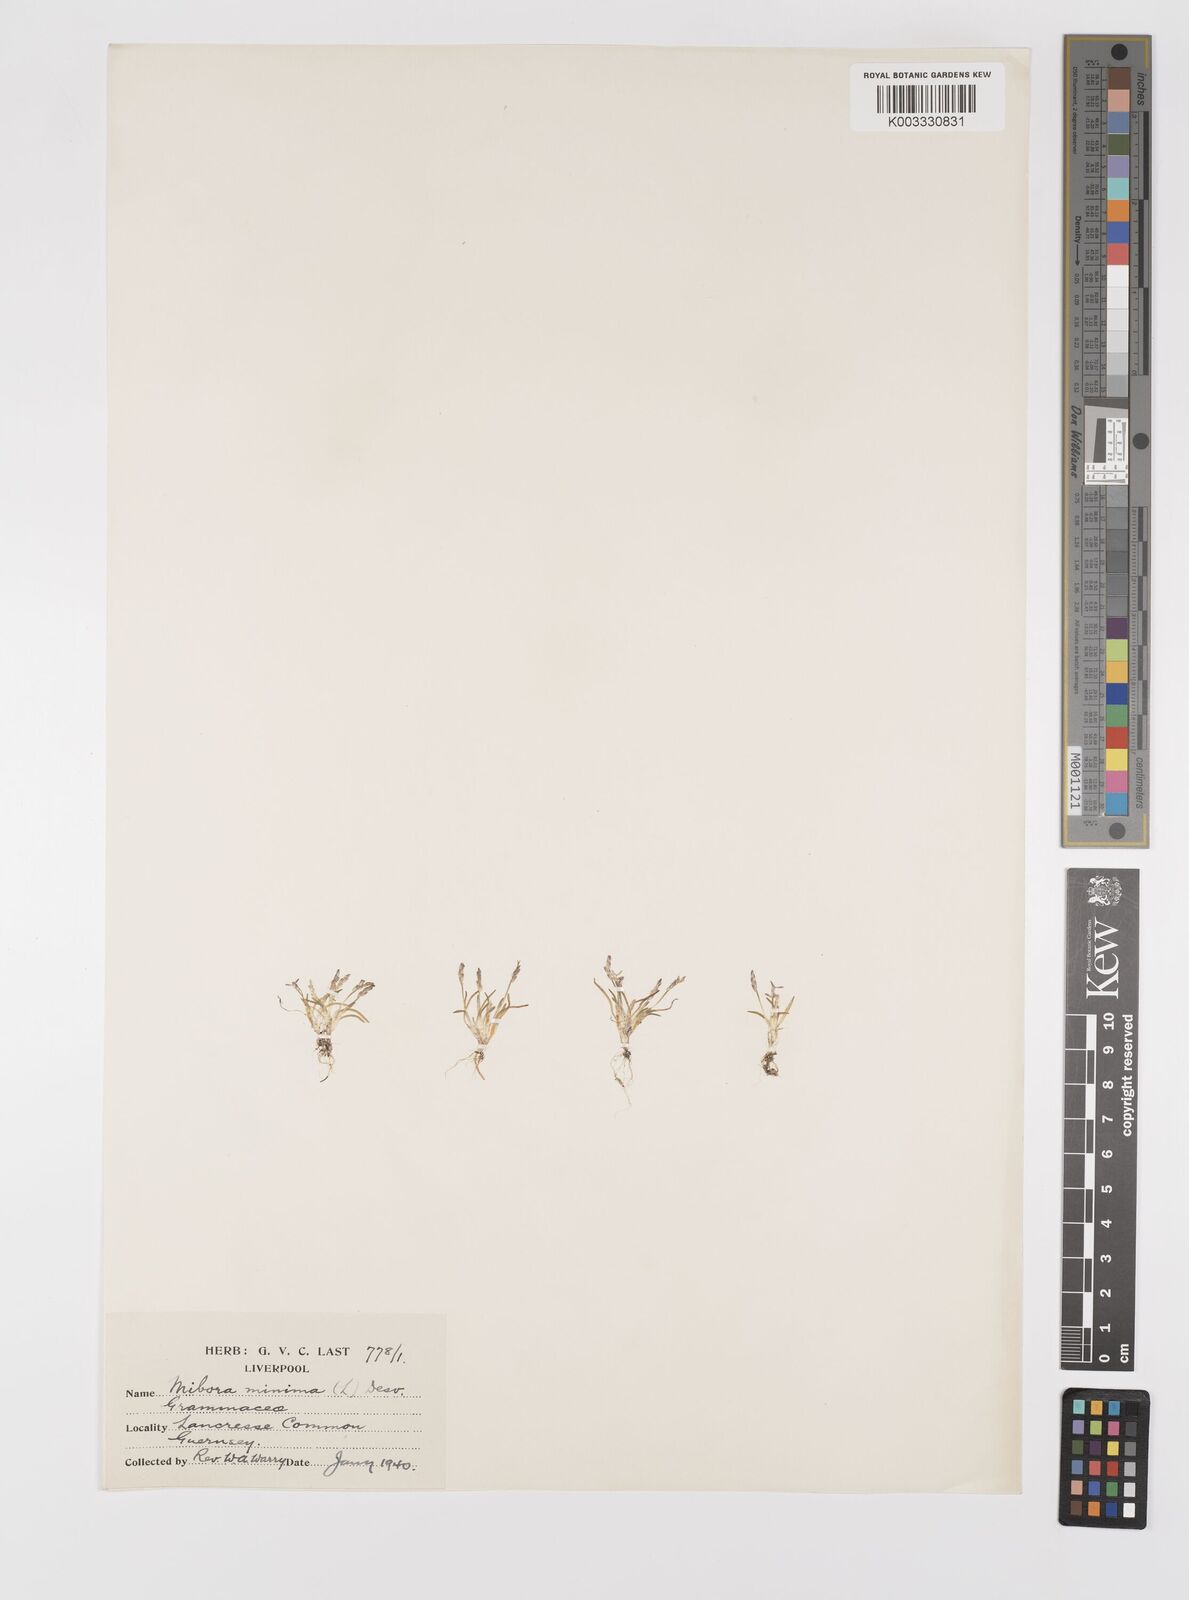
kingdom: Plantae
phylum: Tracheophyta
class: Liliopsida
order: Poales
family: Poaceae
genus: Mibora
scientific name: Mibora minima
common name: Early sand-grass
